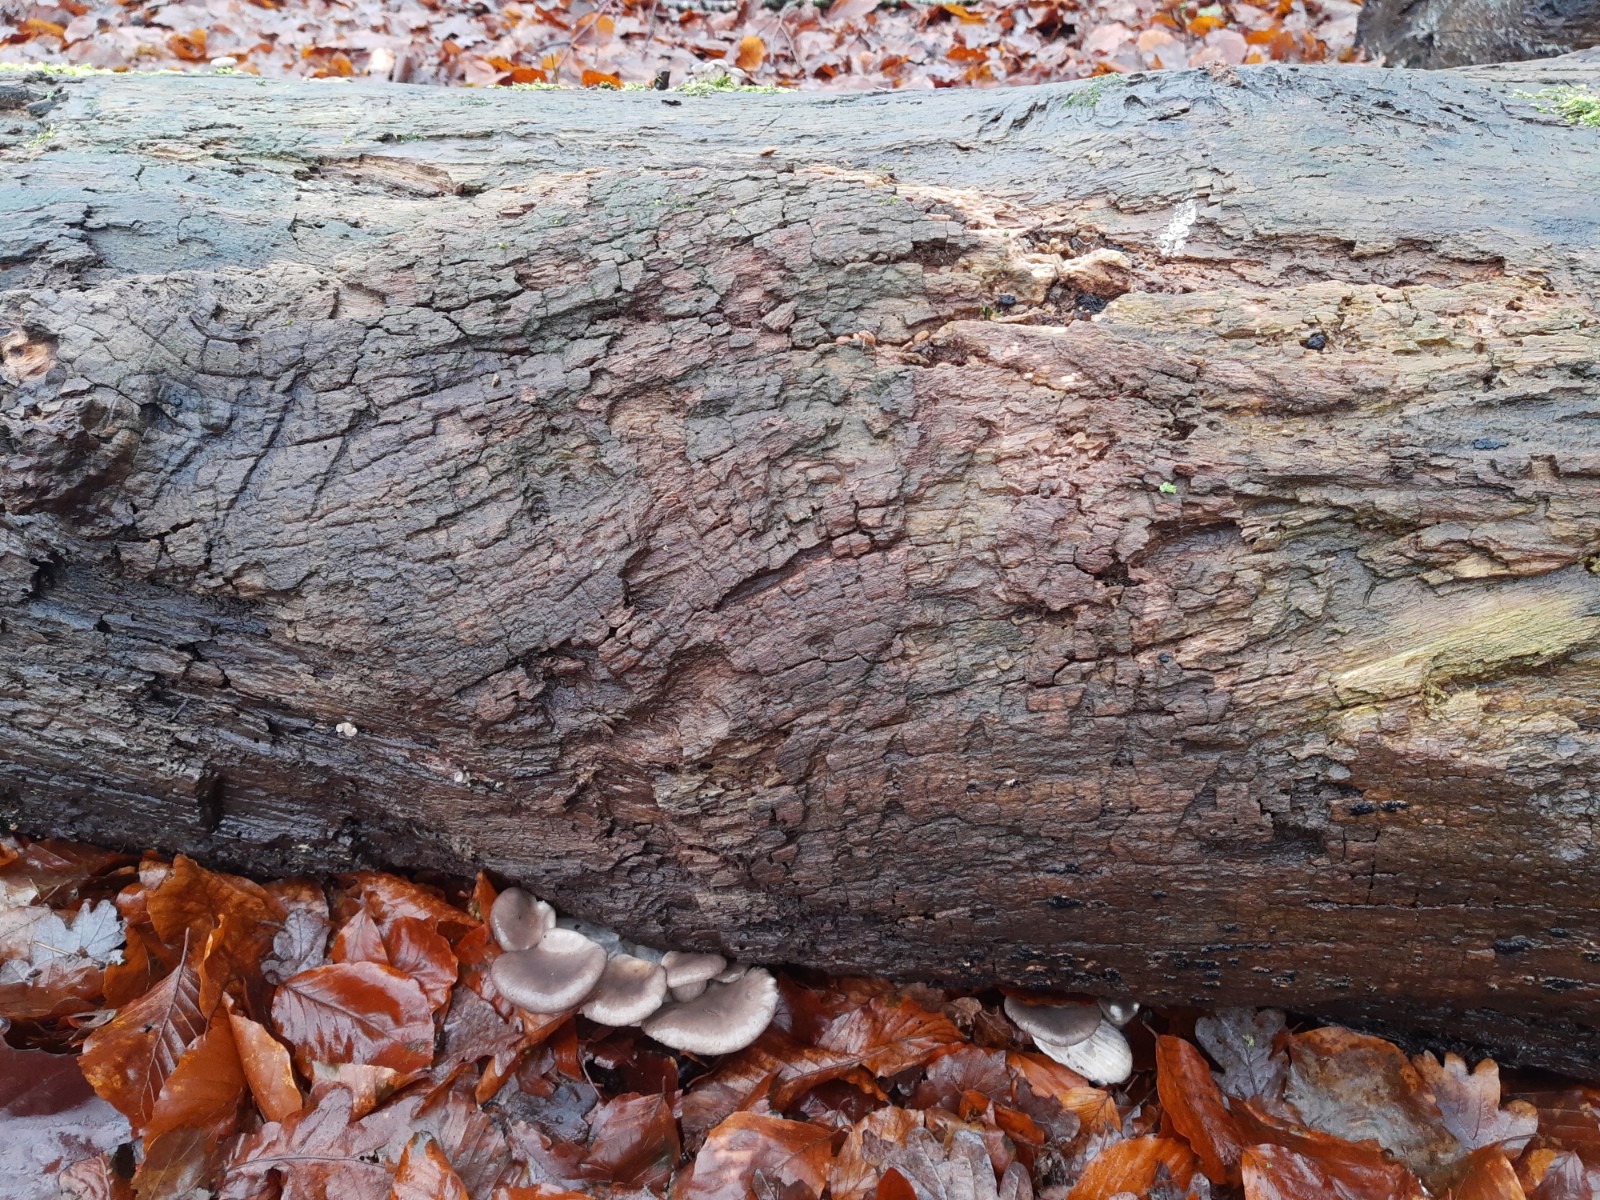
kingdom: Fungi
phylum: Basidiomycota
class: Agaricomycetes
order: Agaricales
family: Pleurotaceae
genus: Pleurotus
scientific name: Pleurotus ostreatus
